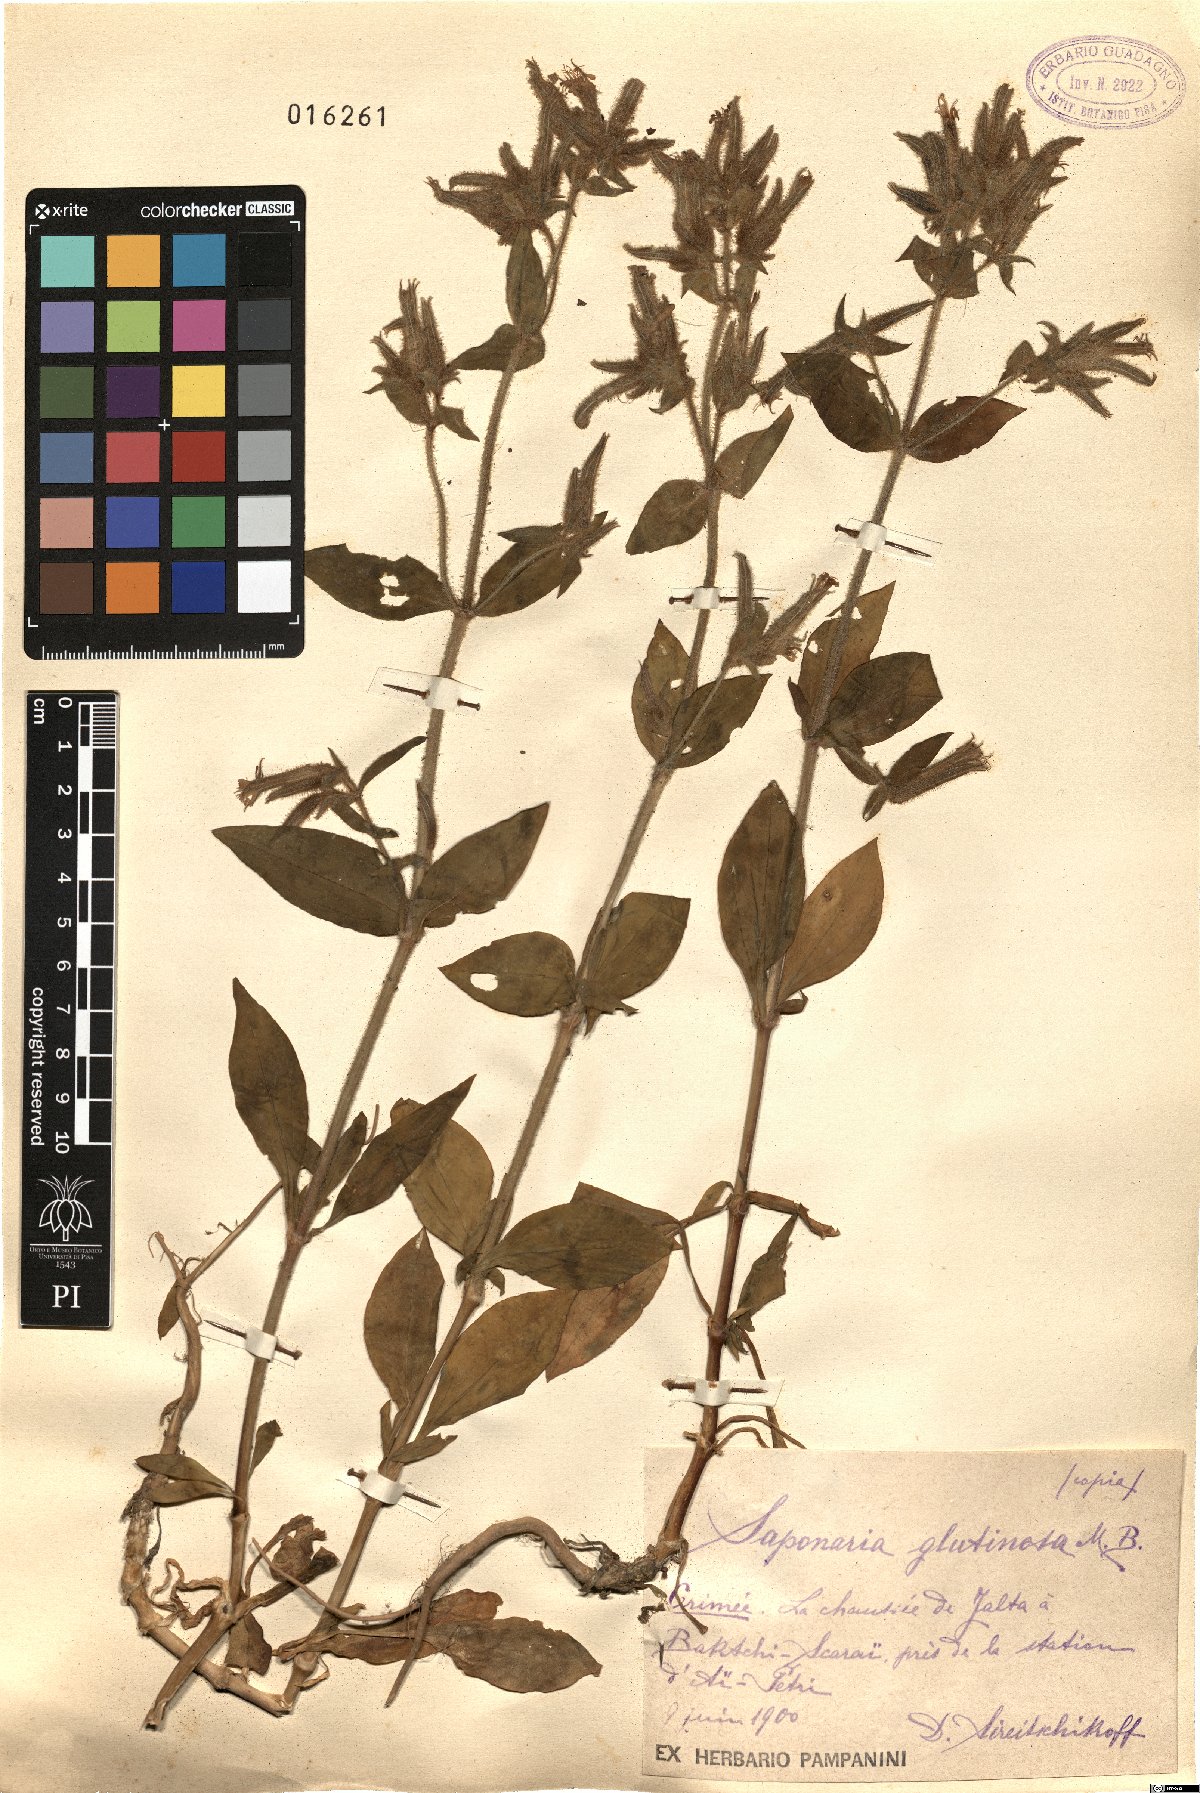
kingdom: Plantae
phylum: Tracheophyta
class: Magnoliopsida
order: Caryophyllales
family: Caryophyllaceae
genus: Saponaria
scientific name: Saponaria glutinosa
